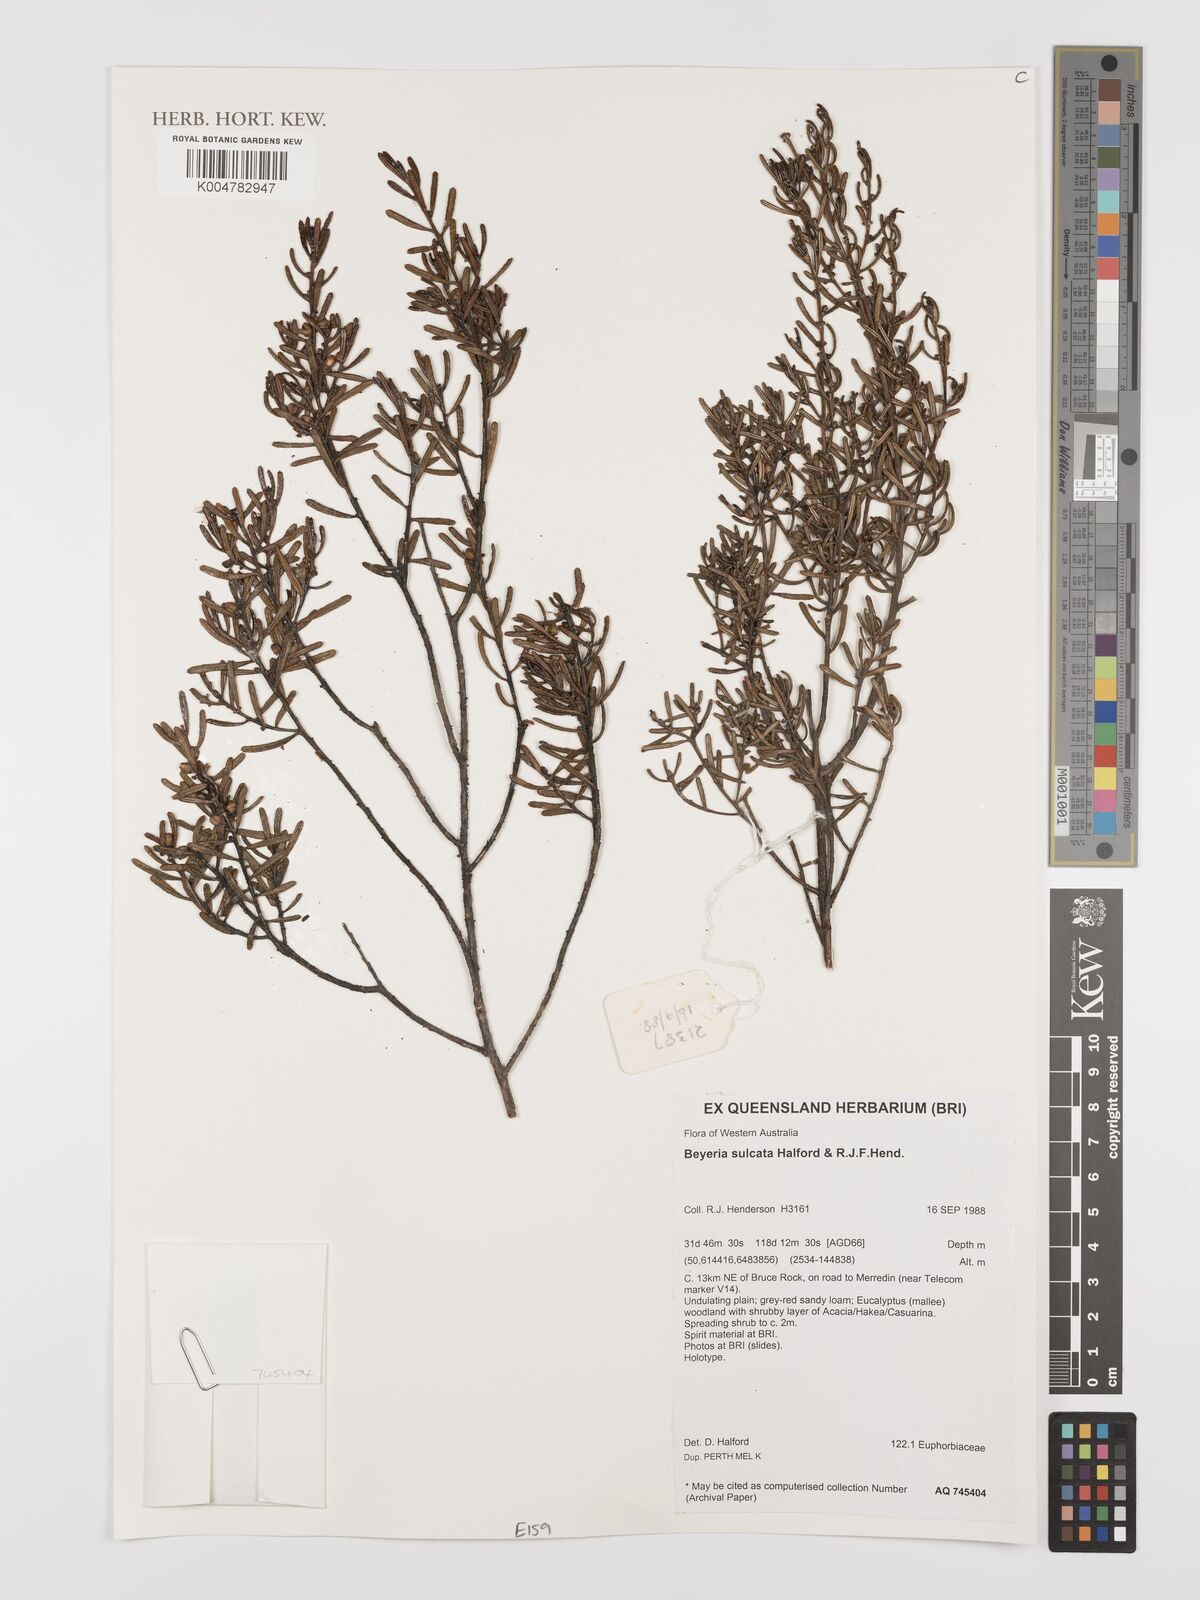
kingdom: Plantae
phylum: Tracheophyta
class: Magnoliopsida
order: Malpighiales
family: Euphorbiaceae
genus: Beyeria
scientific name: Beyeria sulcata
